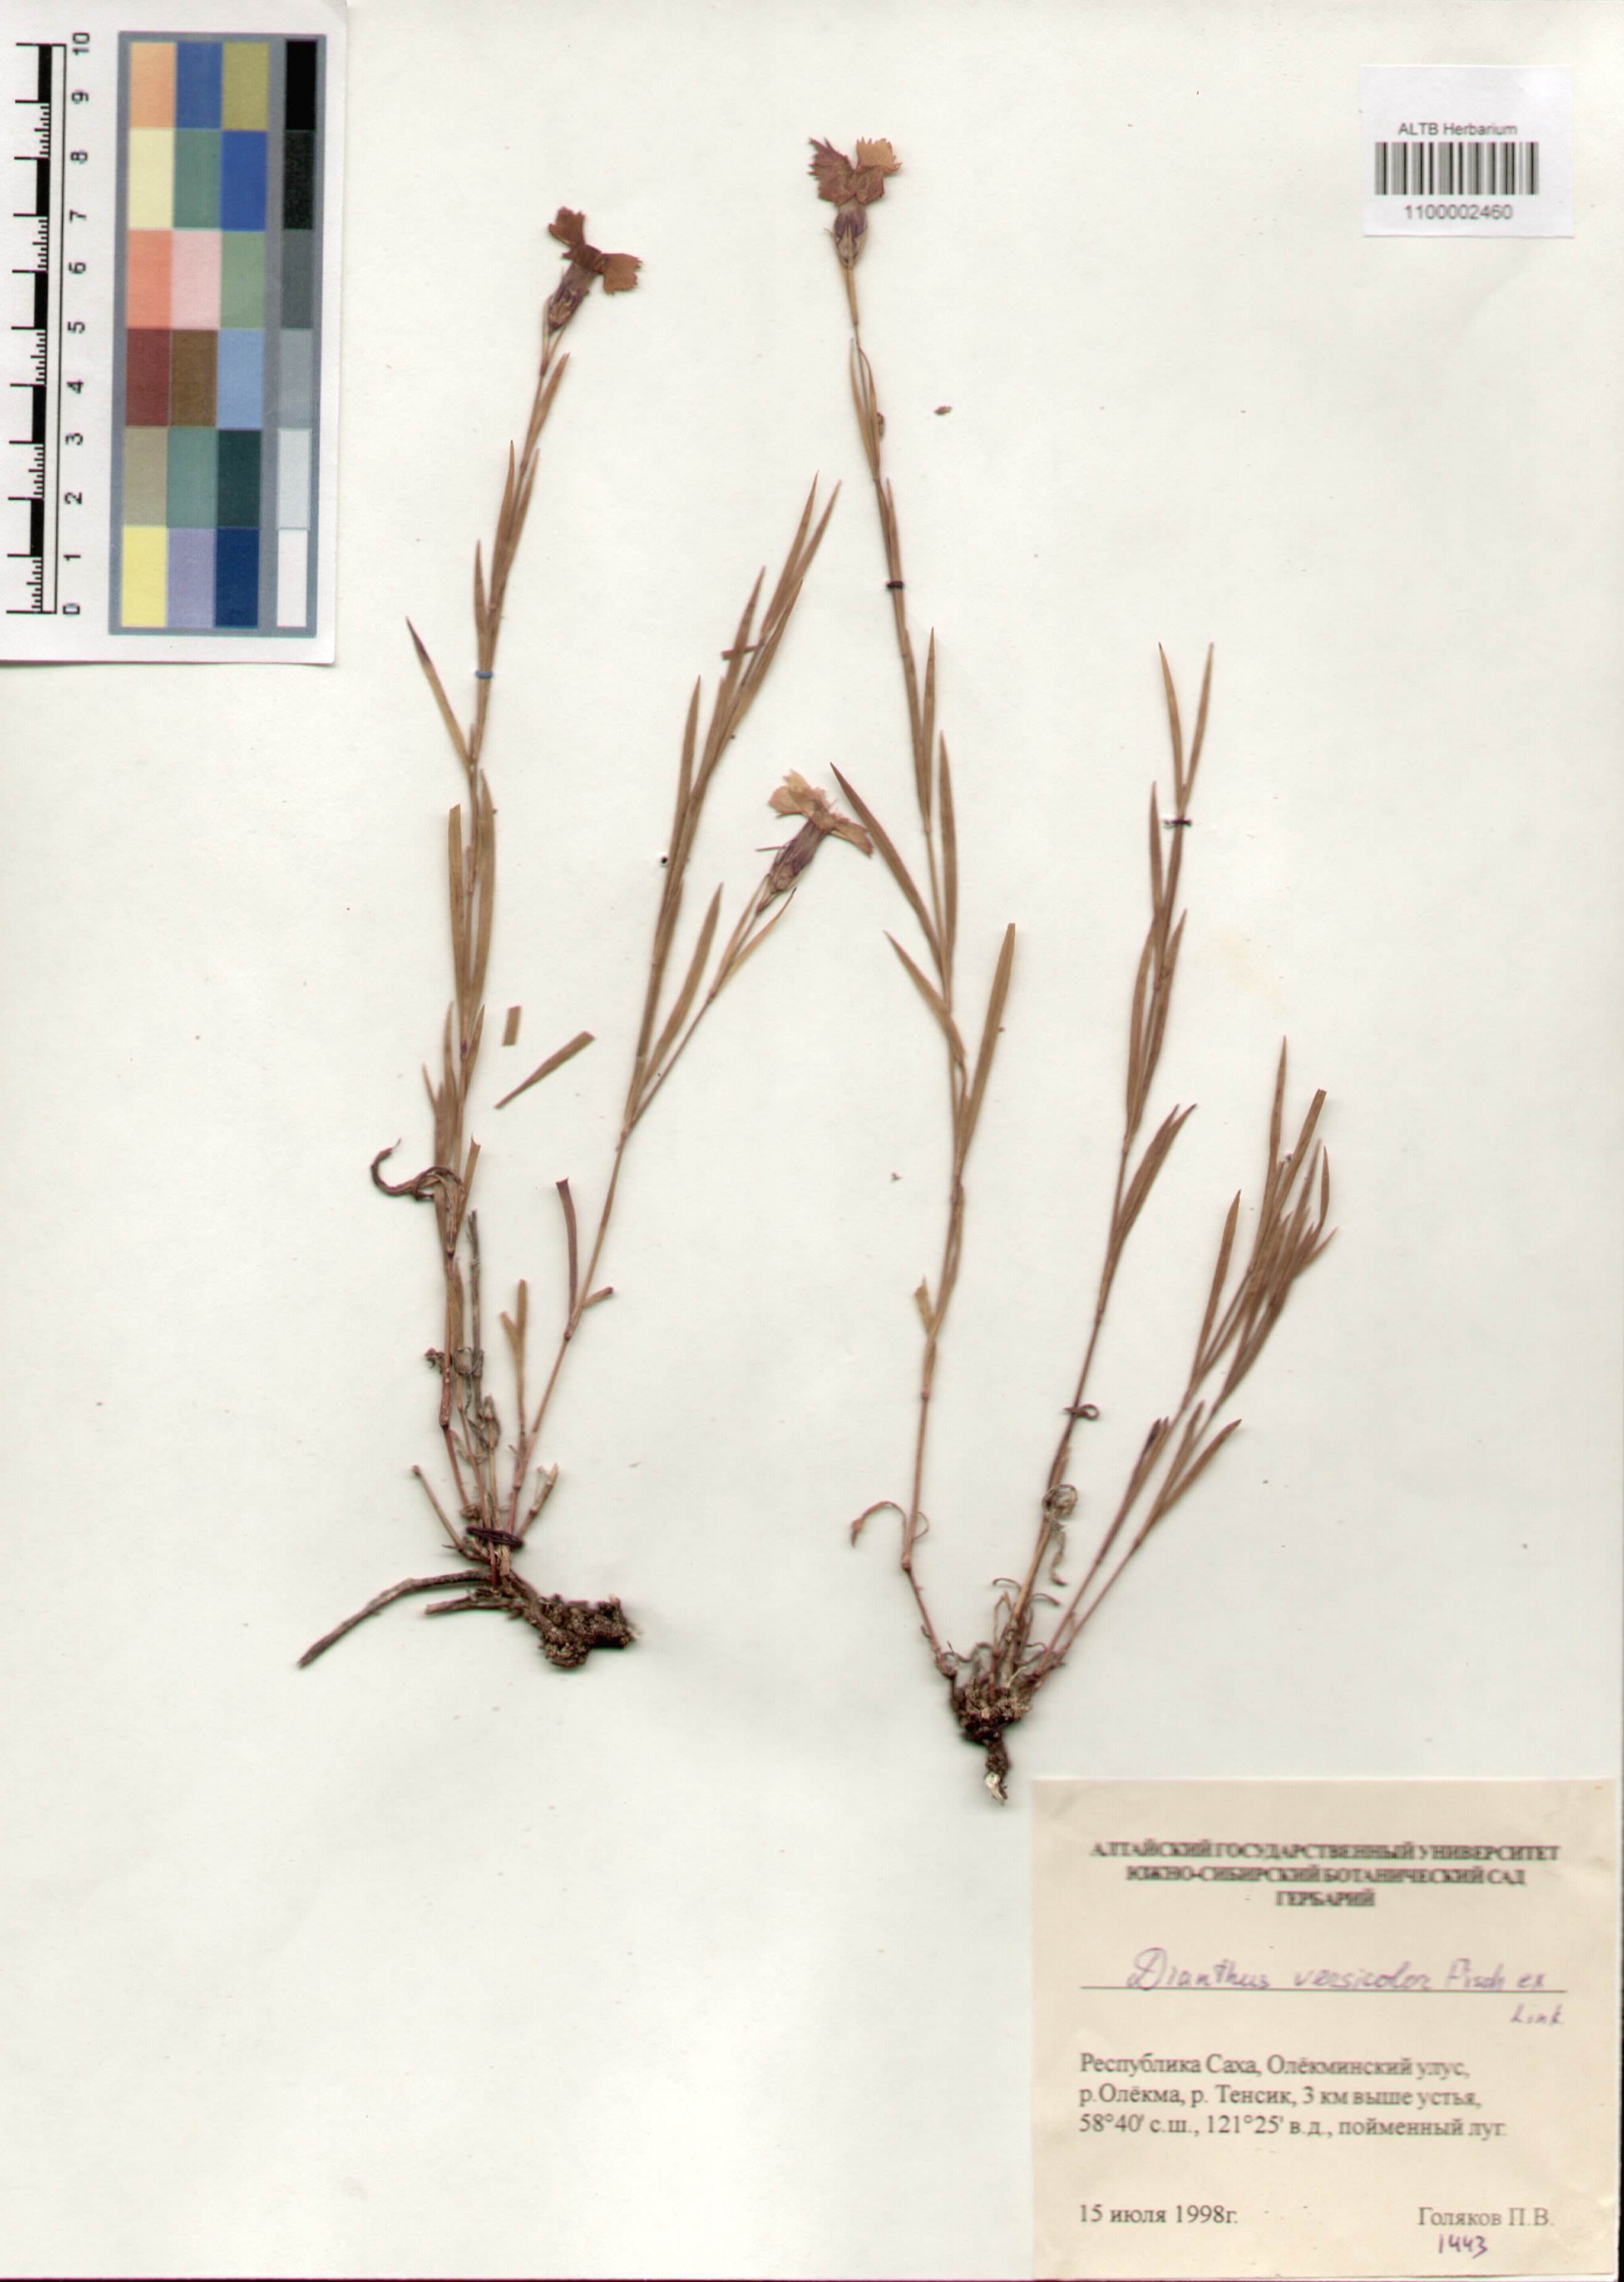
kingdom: Plantae
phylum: Tracheophyta
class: Magnoliopsida
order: Caryophyllales
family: Caryophyllaceae
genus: Dianthus
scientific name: Dianthus chinensis
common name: Rainbow pink
